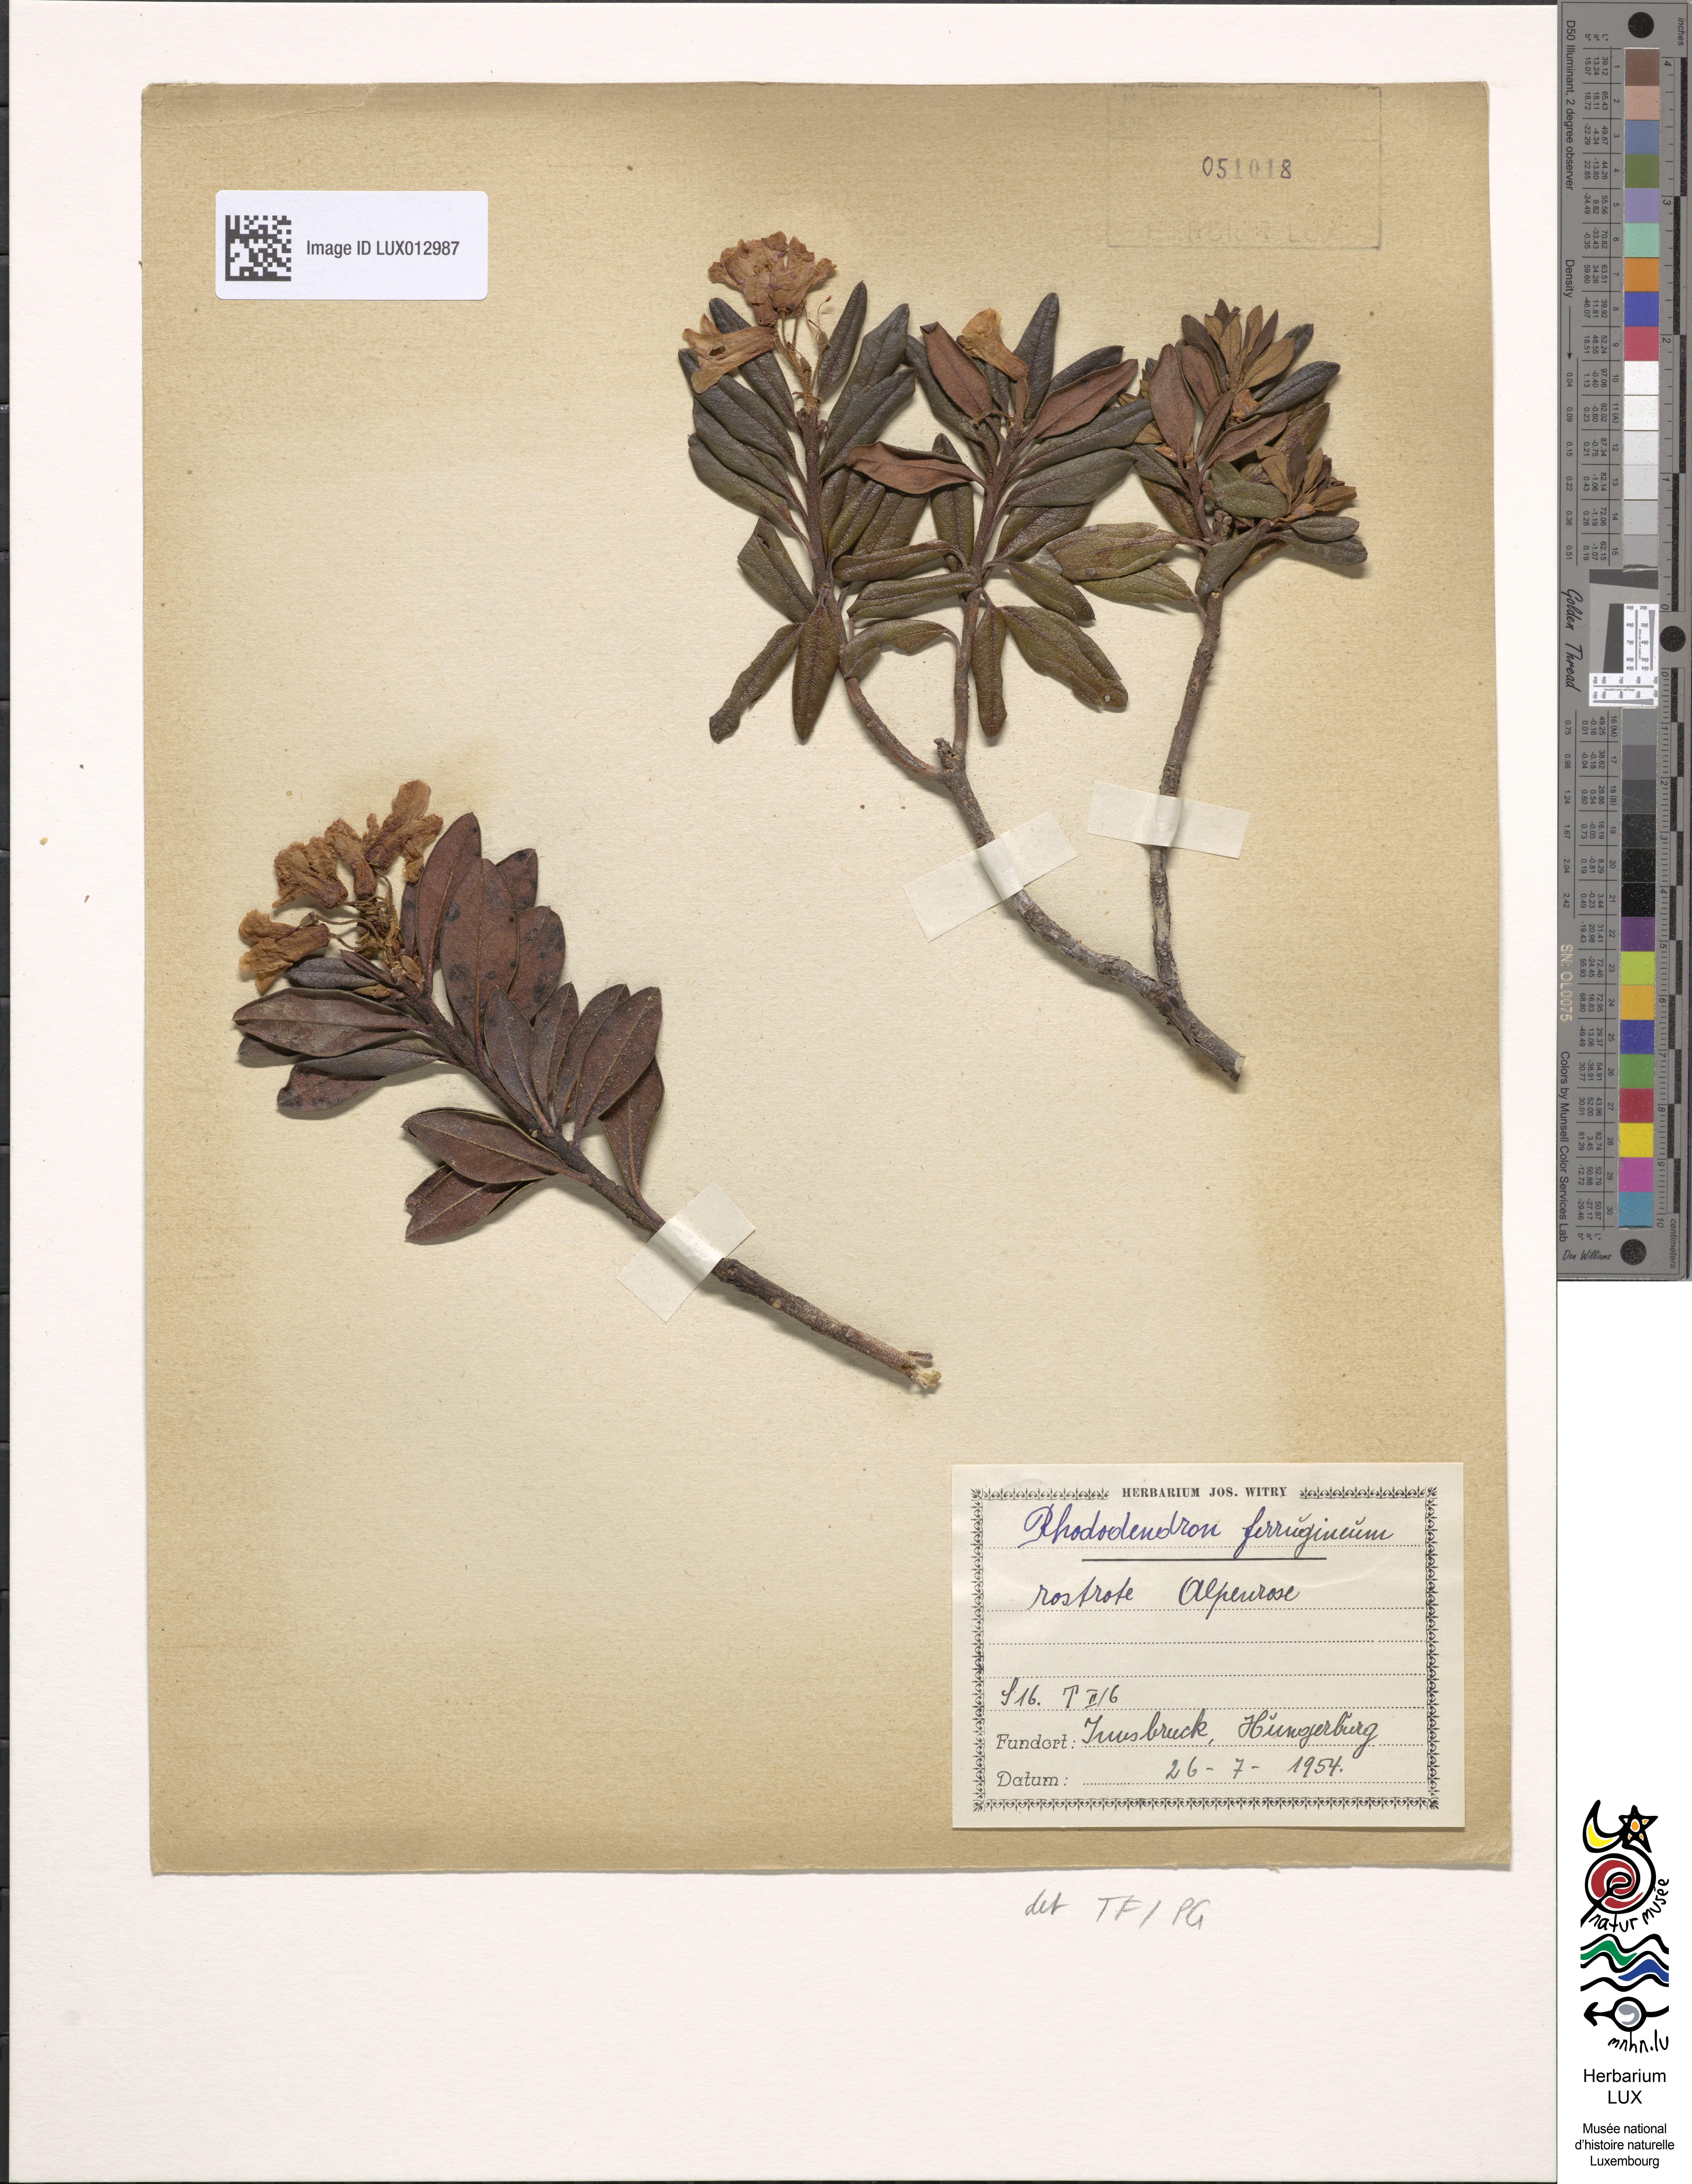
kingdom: Plantae
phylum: Tracheophyta
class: Magnoliopsida
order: Ericales
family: Ericaceae
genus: Rhododendron
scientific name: Rhododendron ferrugineum
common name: Alpenrose
